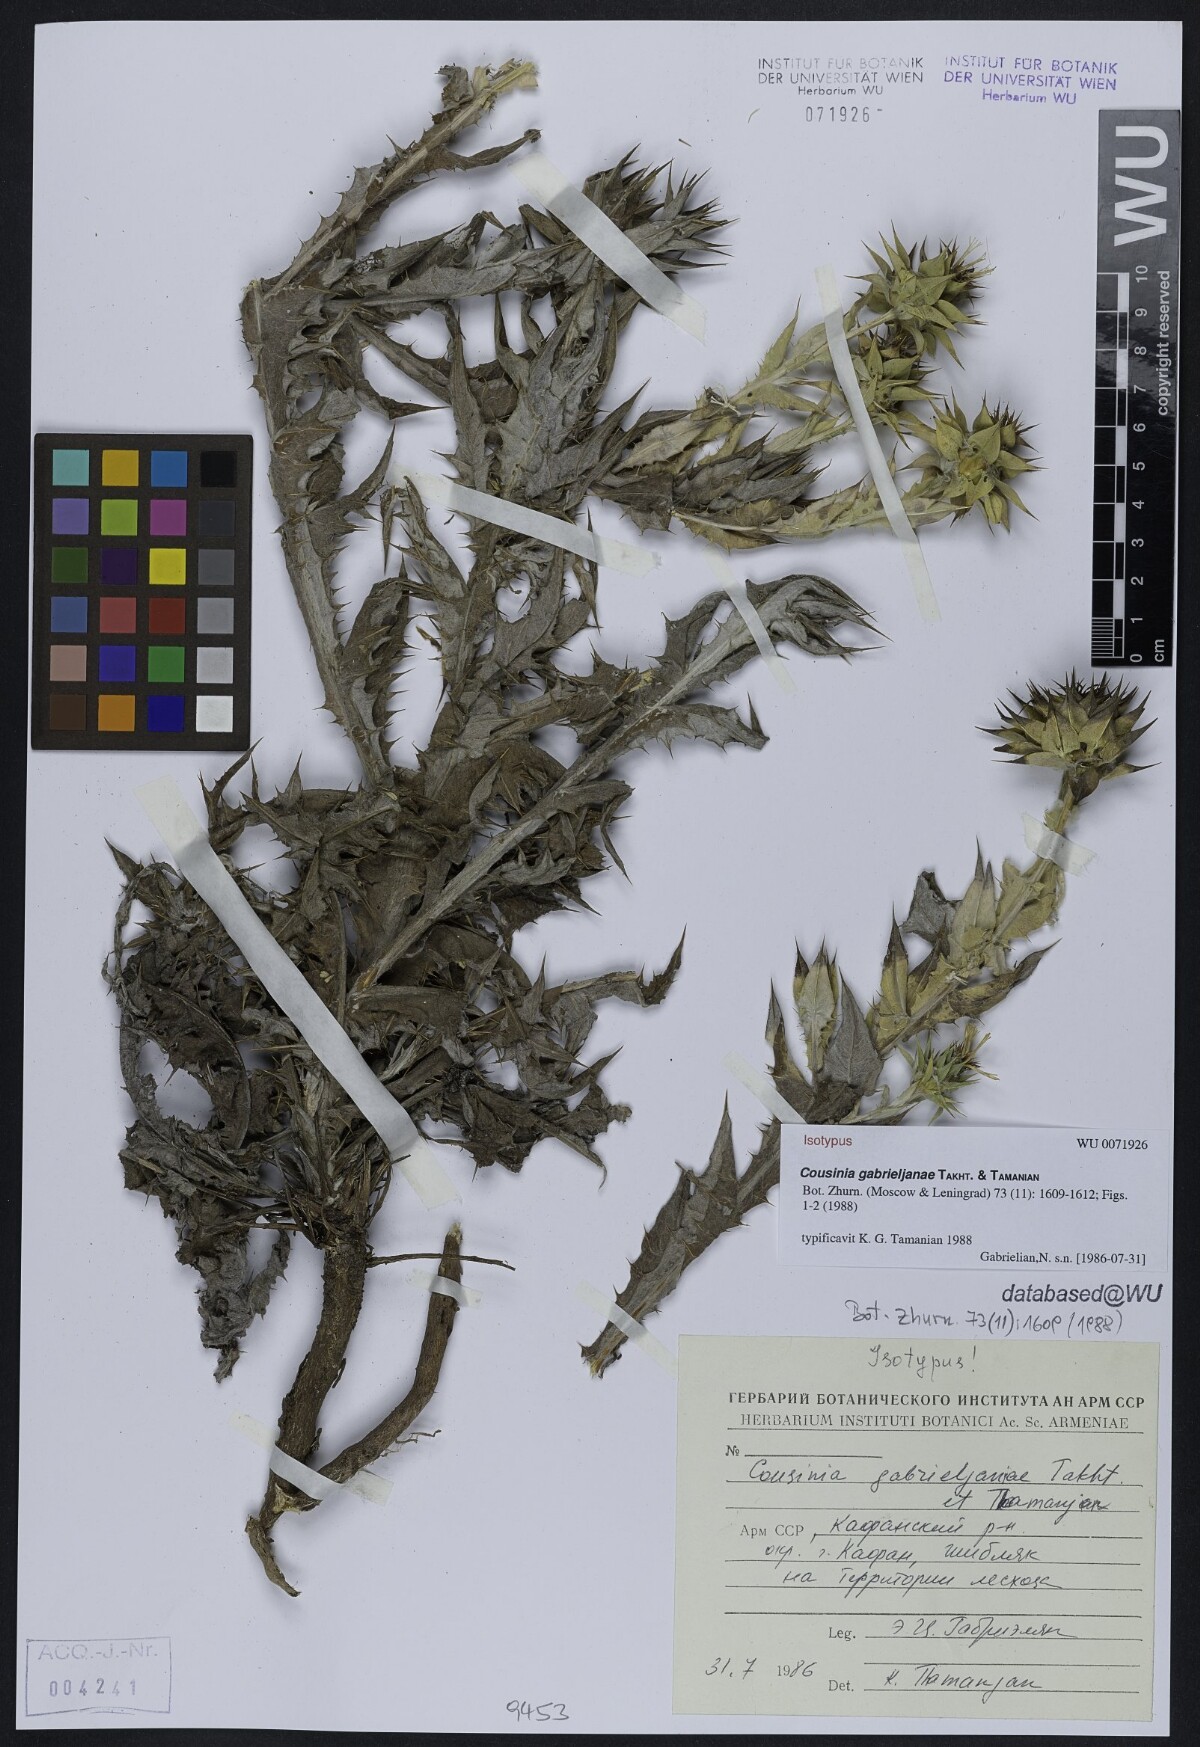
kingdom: Plantae
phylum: Tracheophyta
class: Magnoliopsida
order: Asterales
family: Asteraceae
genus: Cousinia
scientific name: Cousinia macrocephala
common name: Macrocephalous cousinia
